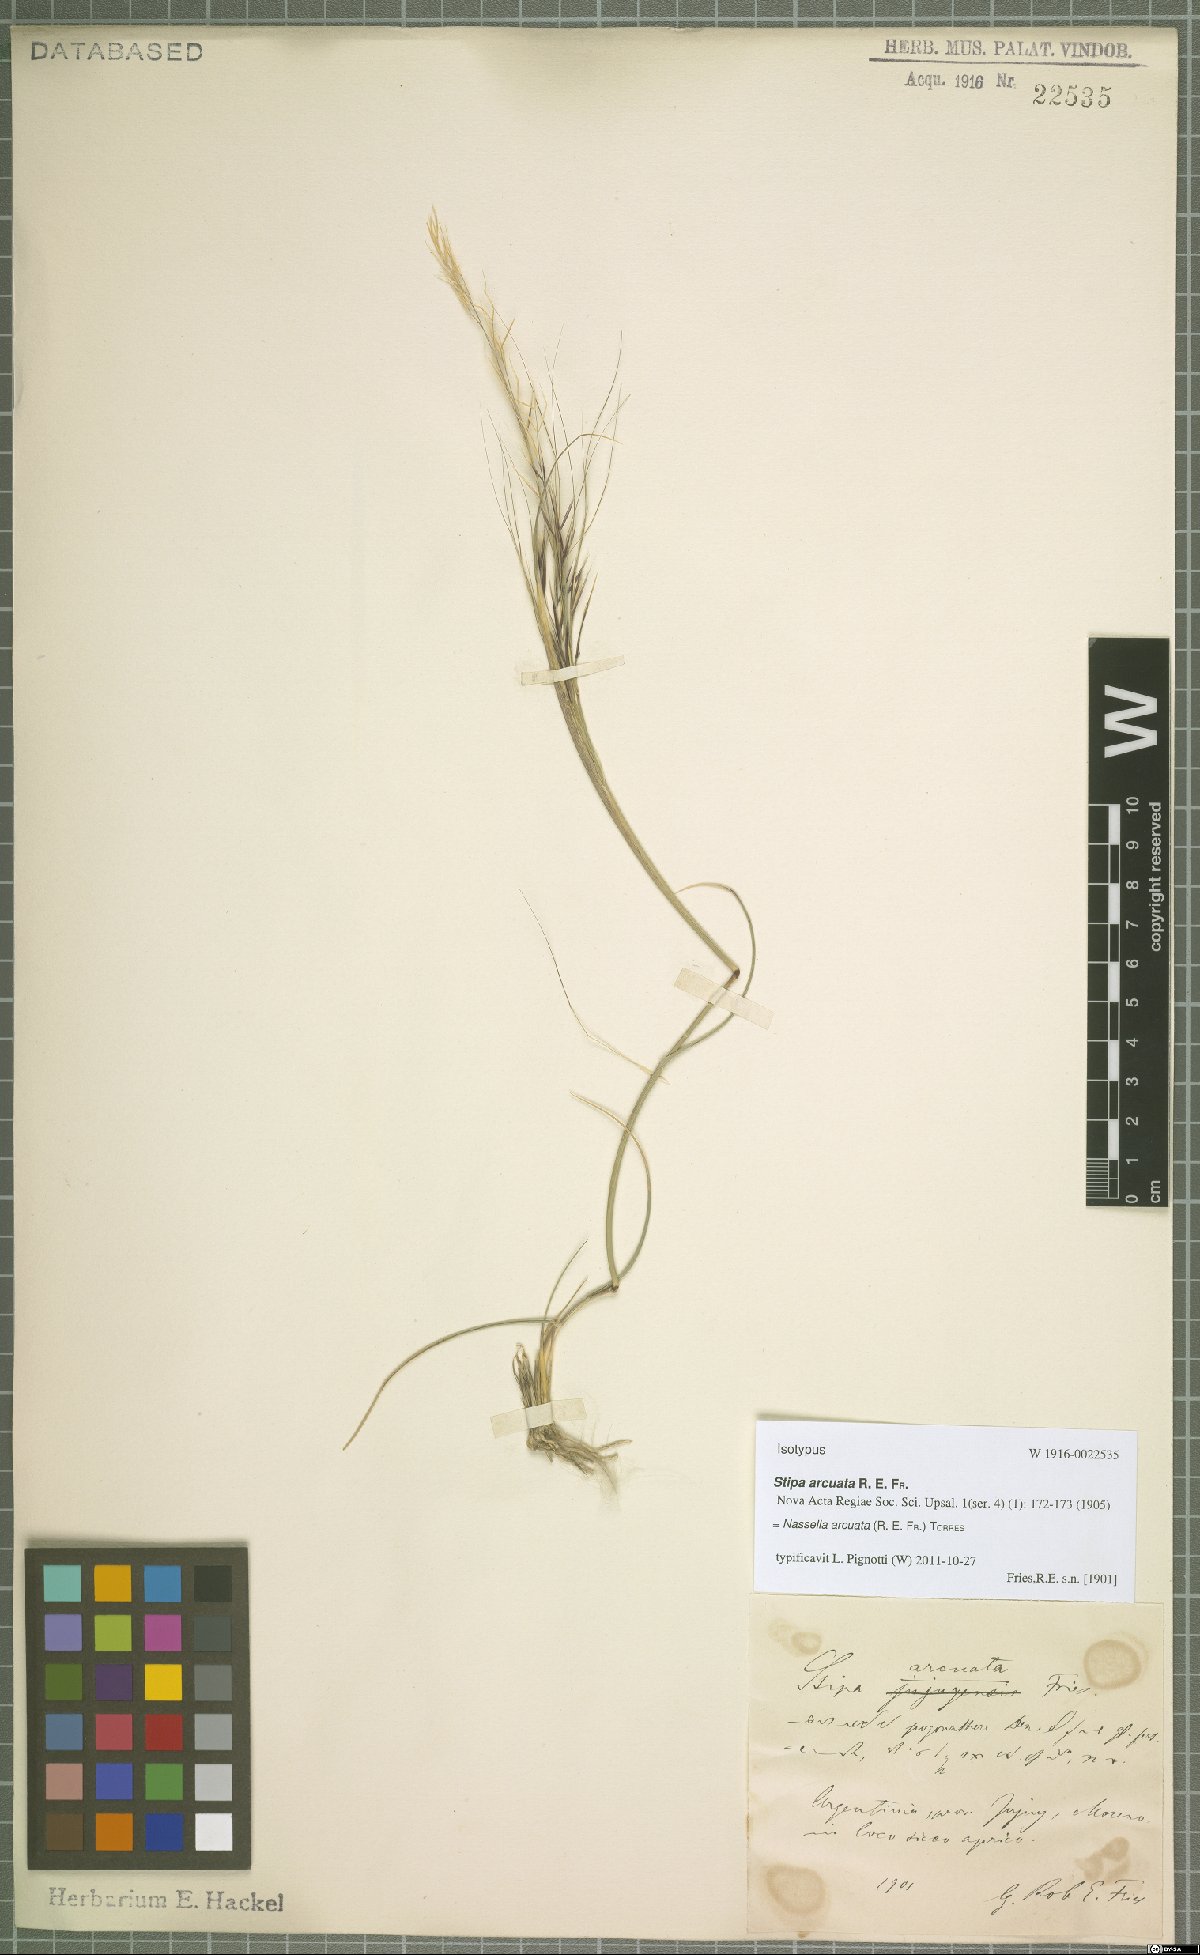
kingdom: Plantae
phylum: Tracheophyta
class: Liliopsida
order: Poales
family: Poaceae
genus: Nassella
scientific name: Nassella arcuata
